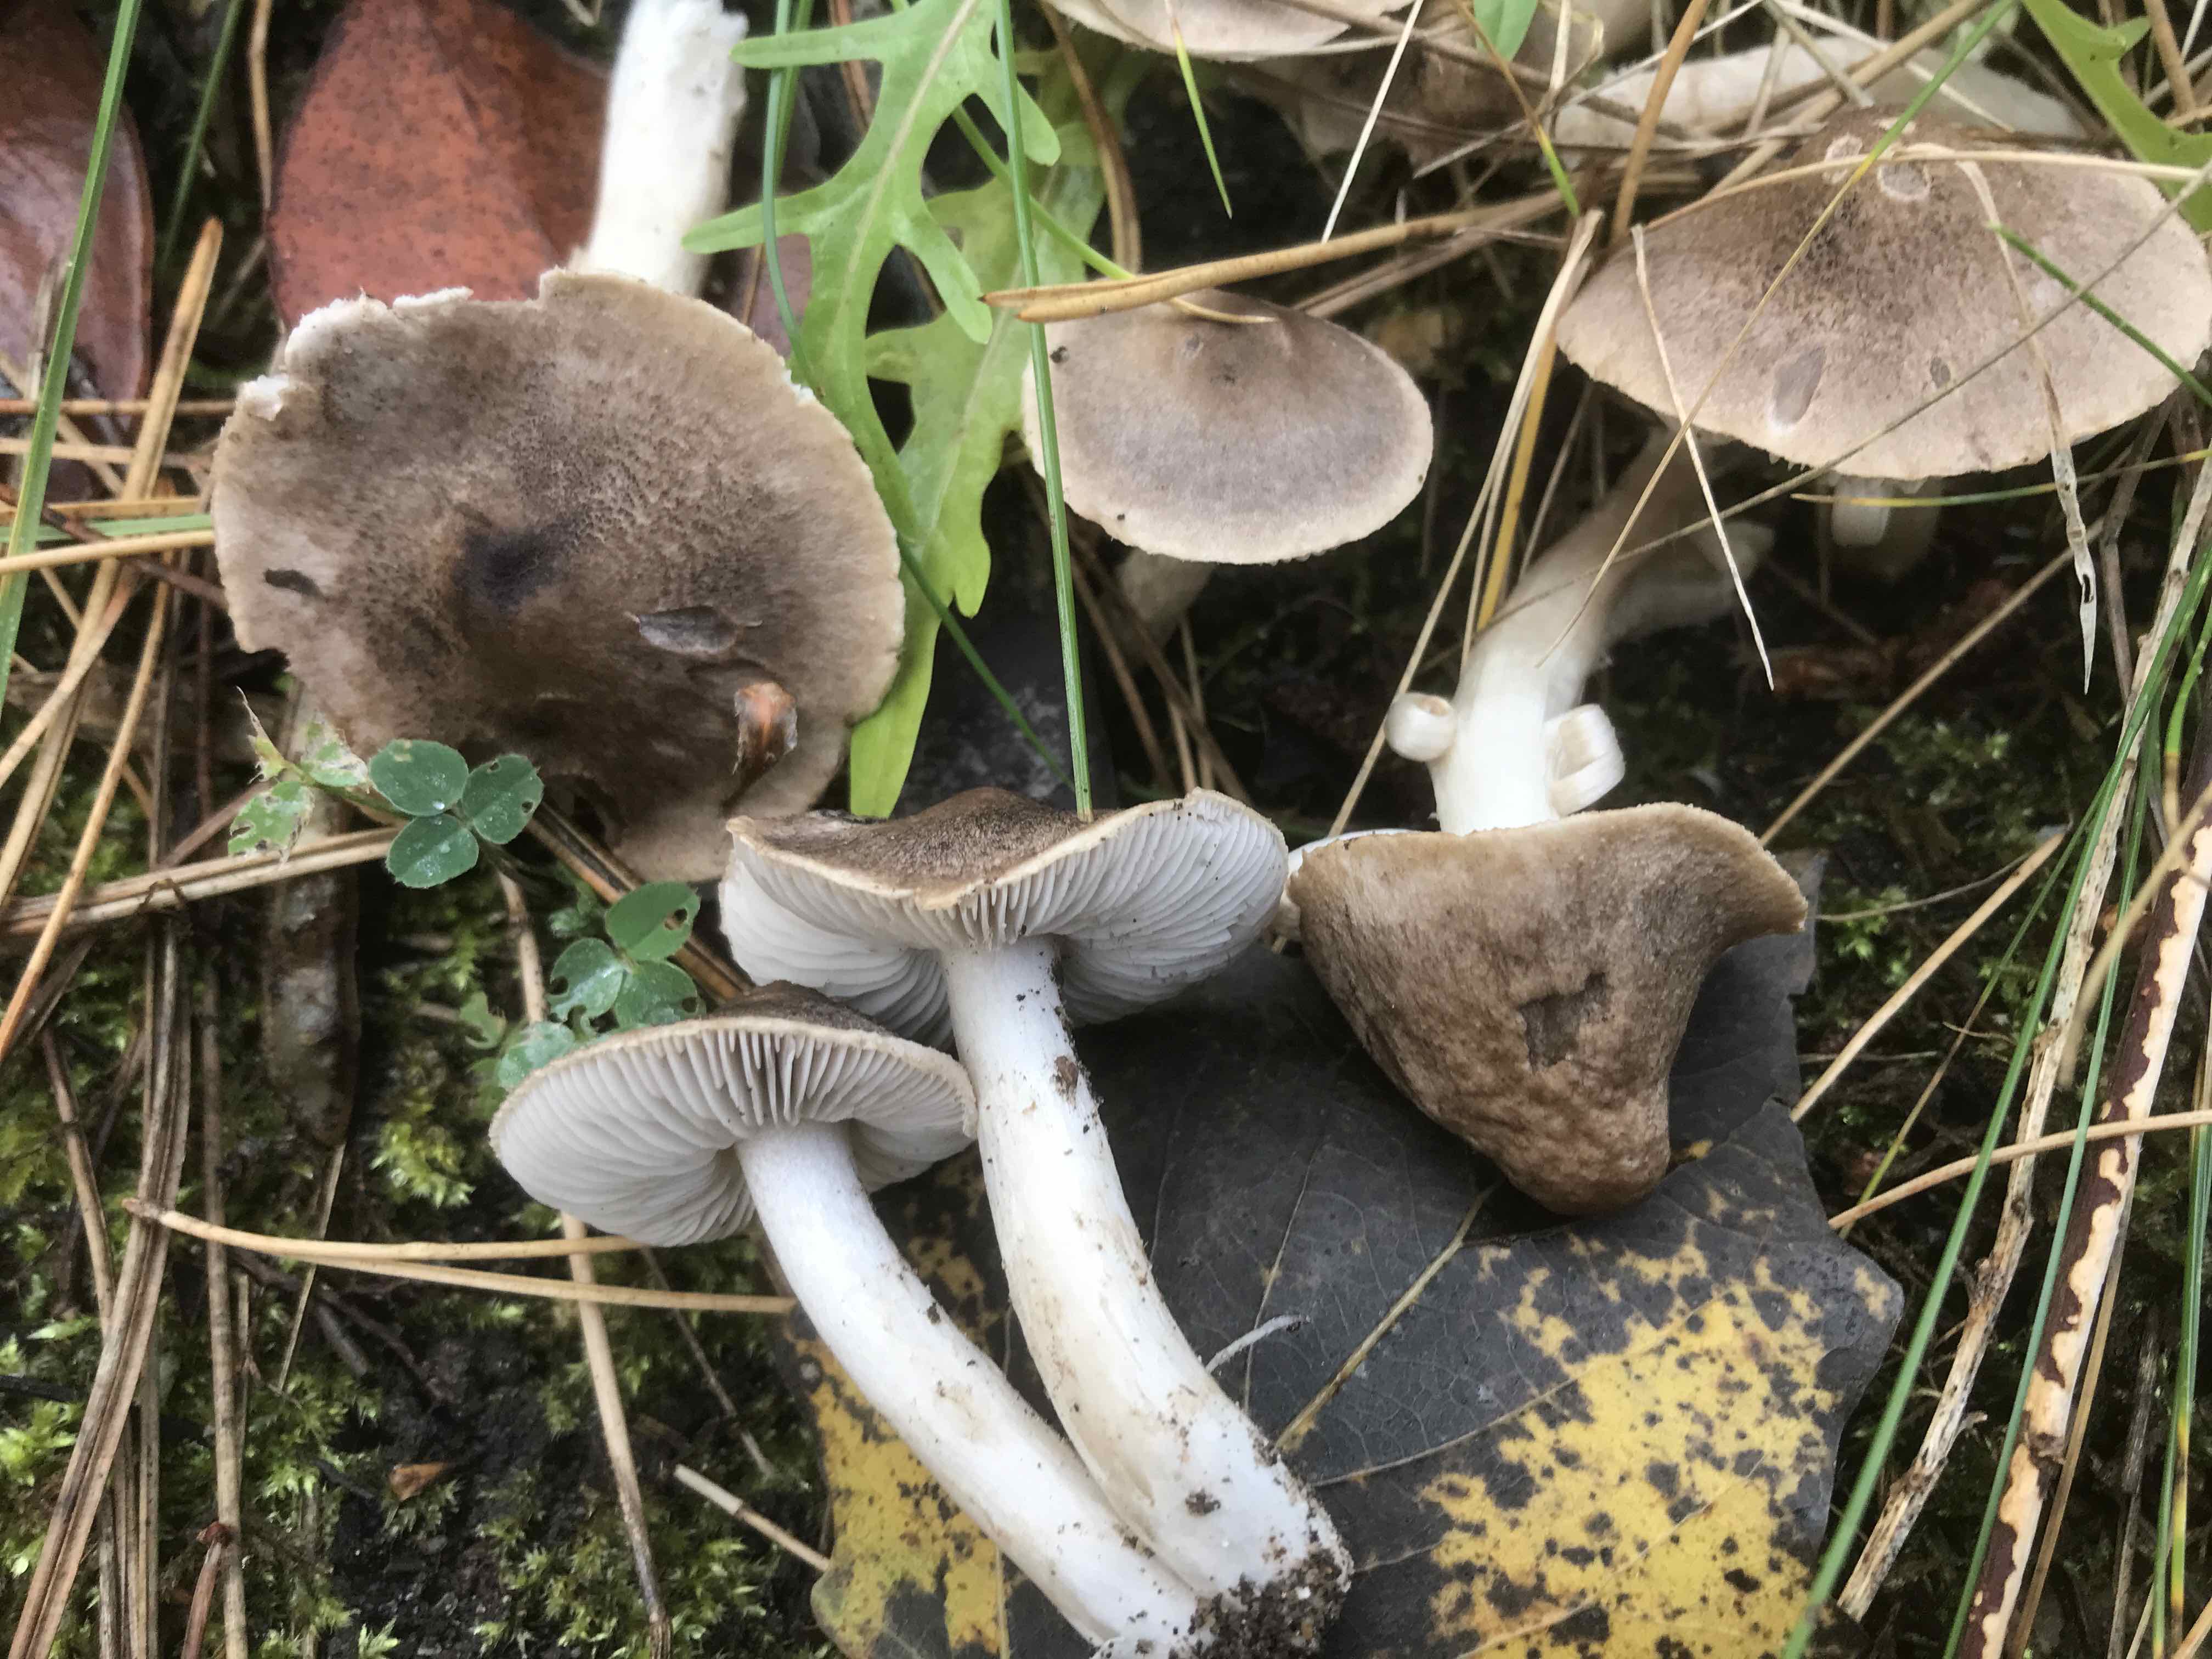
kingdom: Fungi
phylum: Basidiomycota
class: Agaricomycetes
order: Agaricales
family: Tricholomataceae
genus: Tricholoma
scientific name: Tricholoma terreum
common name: jordfarvet ridderhat
